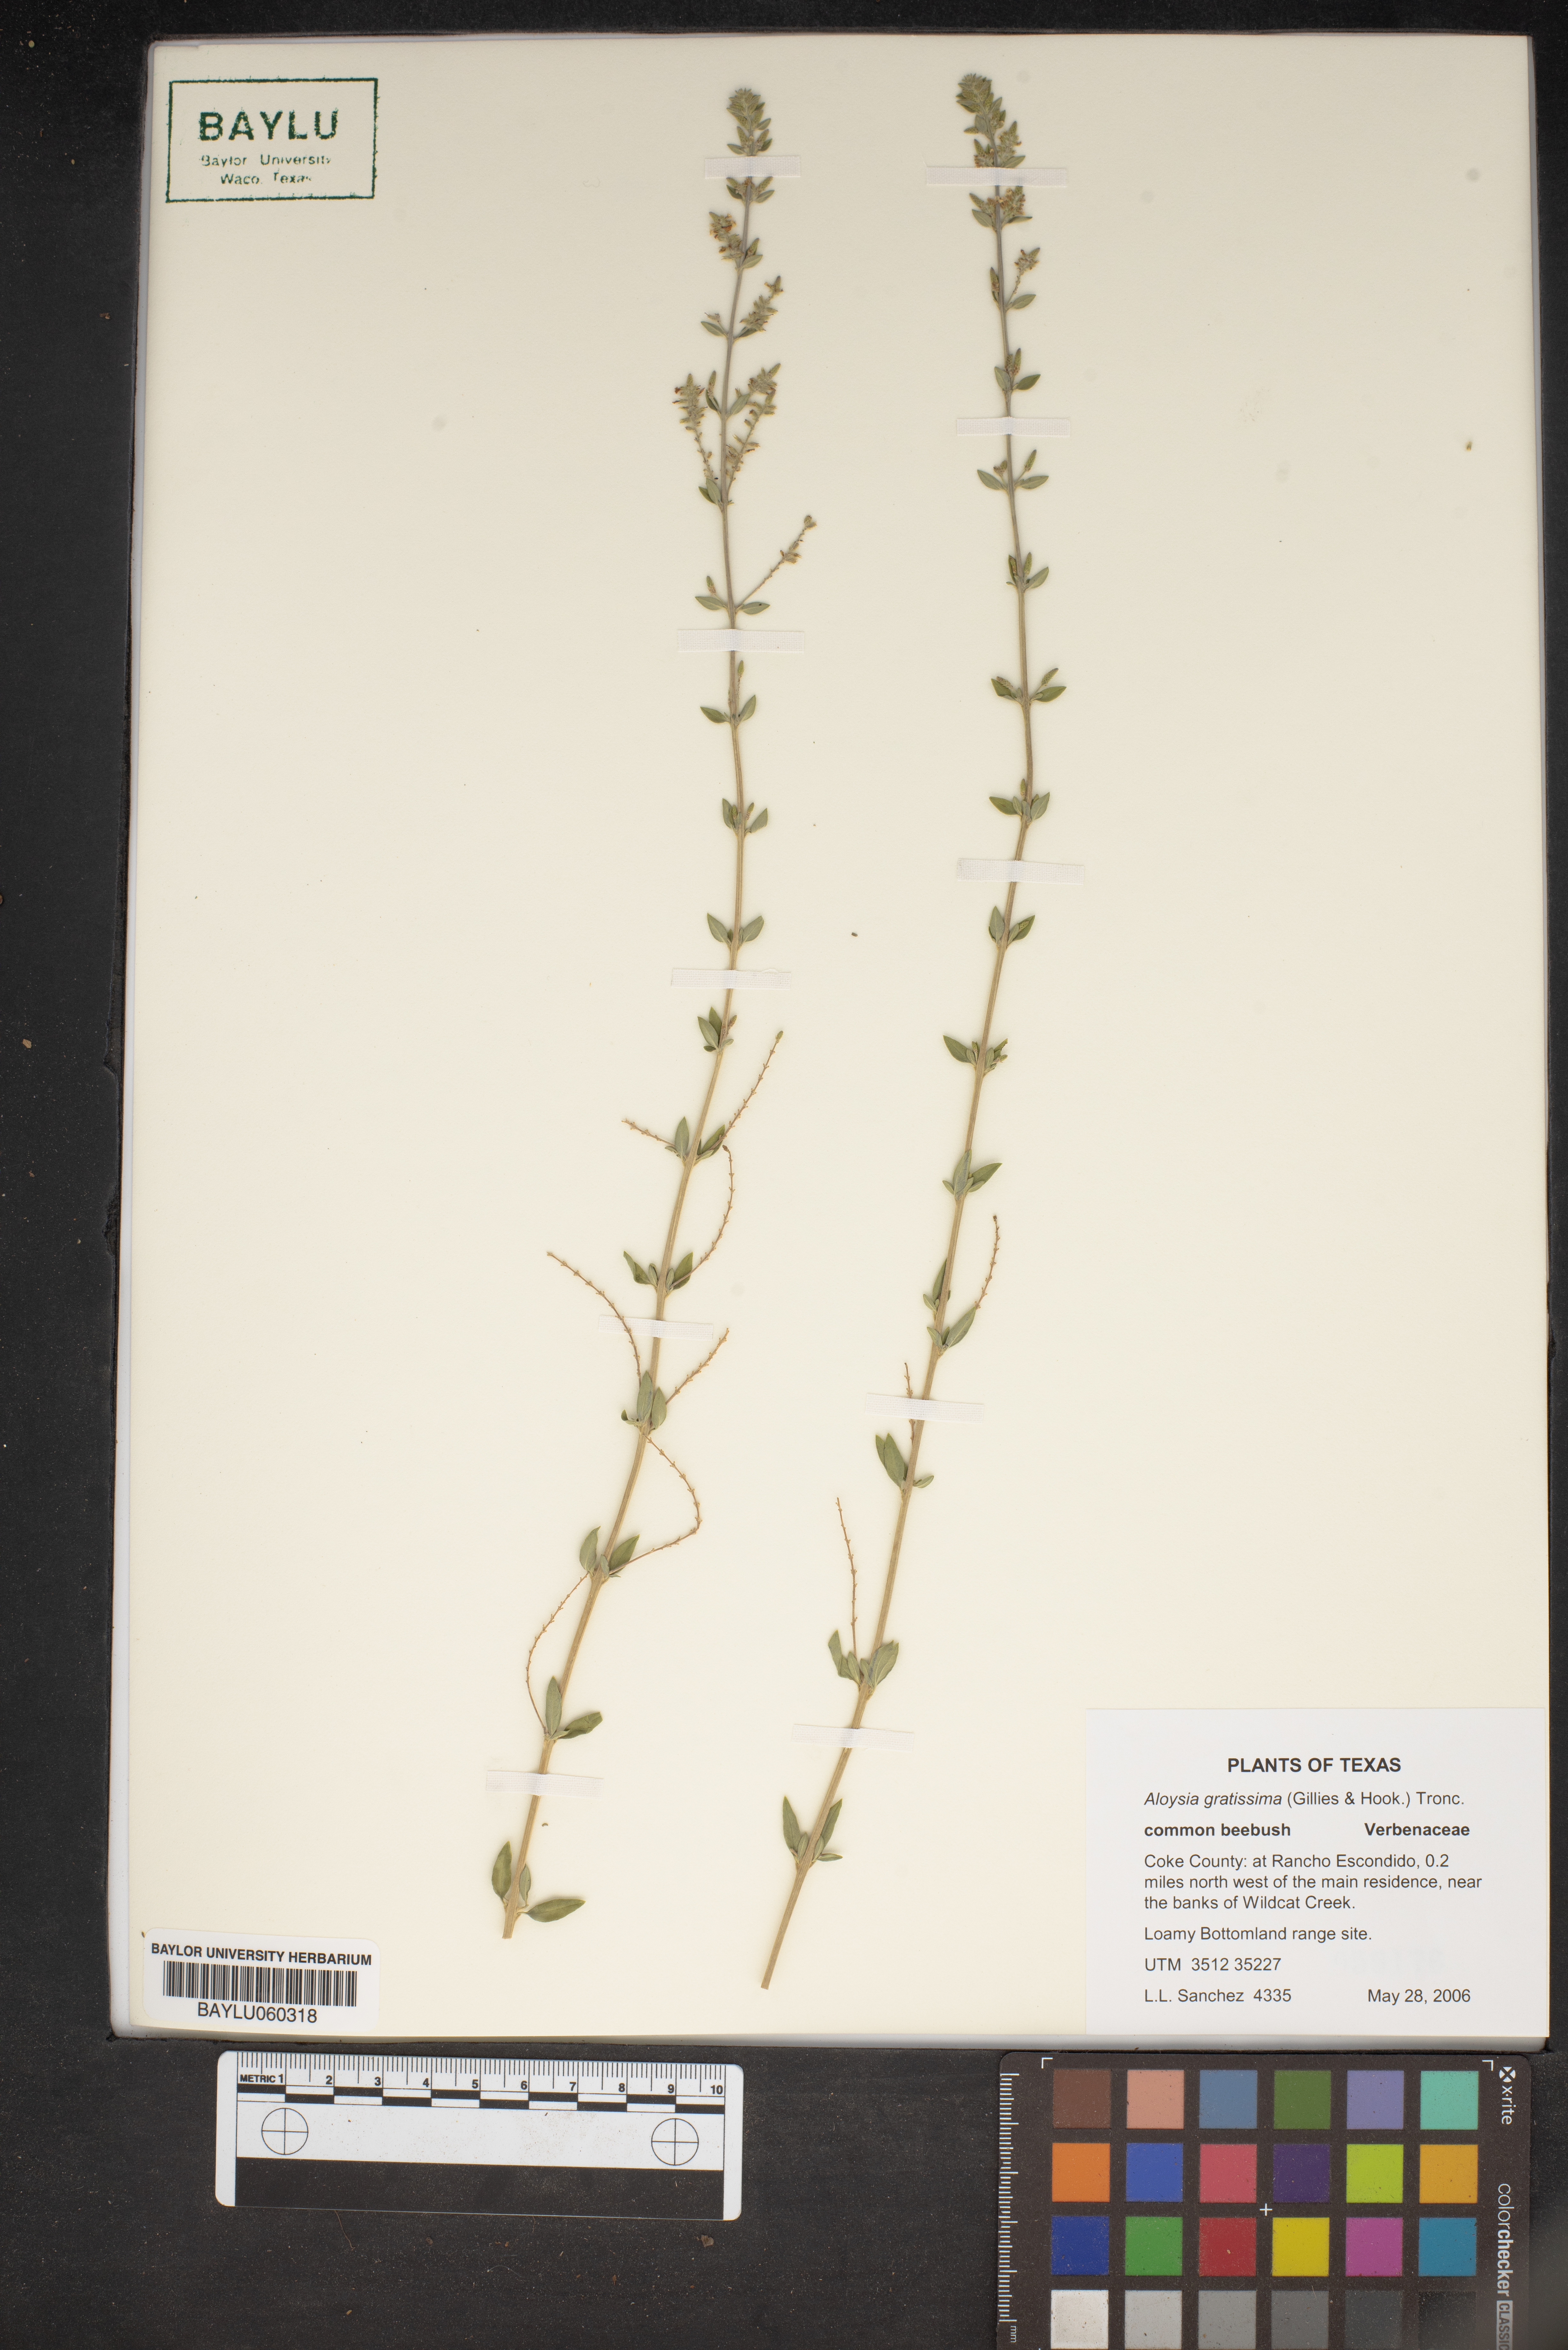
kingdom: Plantae
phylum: Tracheophyta
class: Magnoliopsida
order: Lamiales
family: Verbenaceae
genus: Aloysia
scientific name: Aloysia gratissima
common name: Common bee-brush
